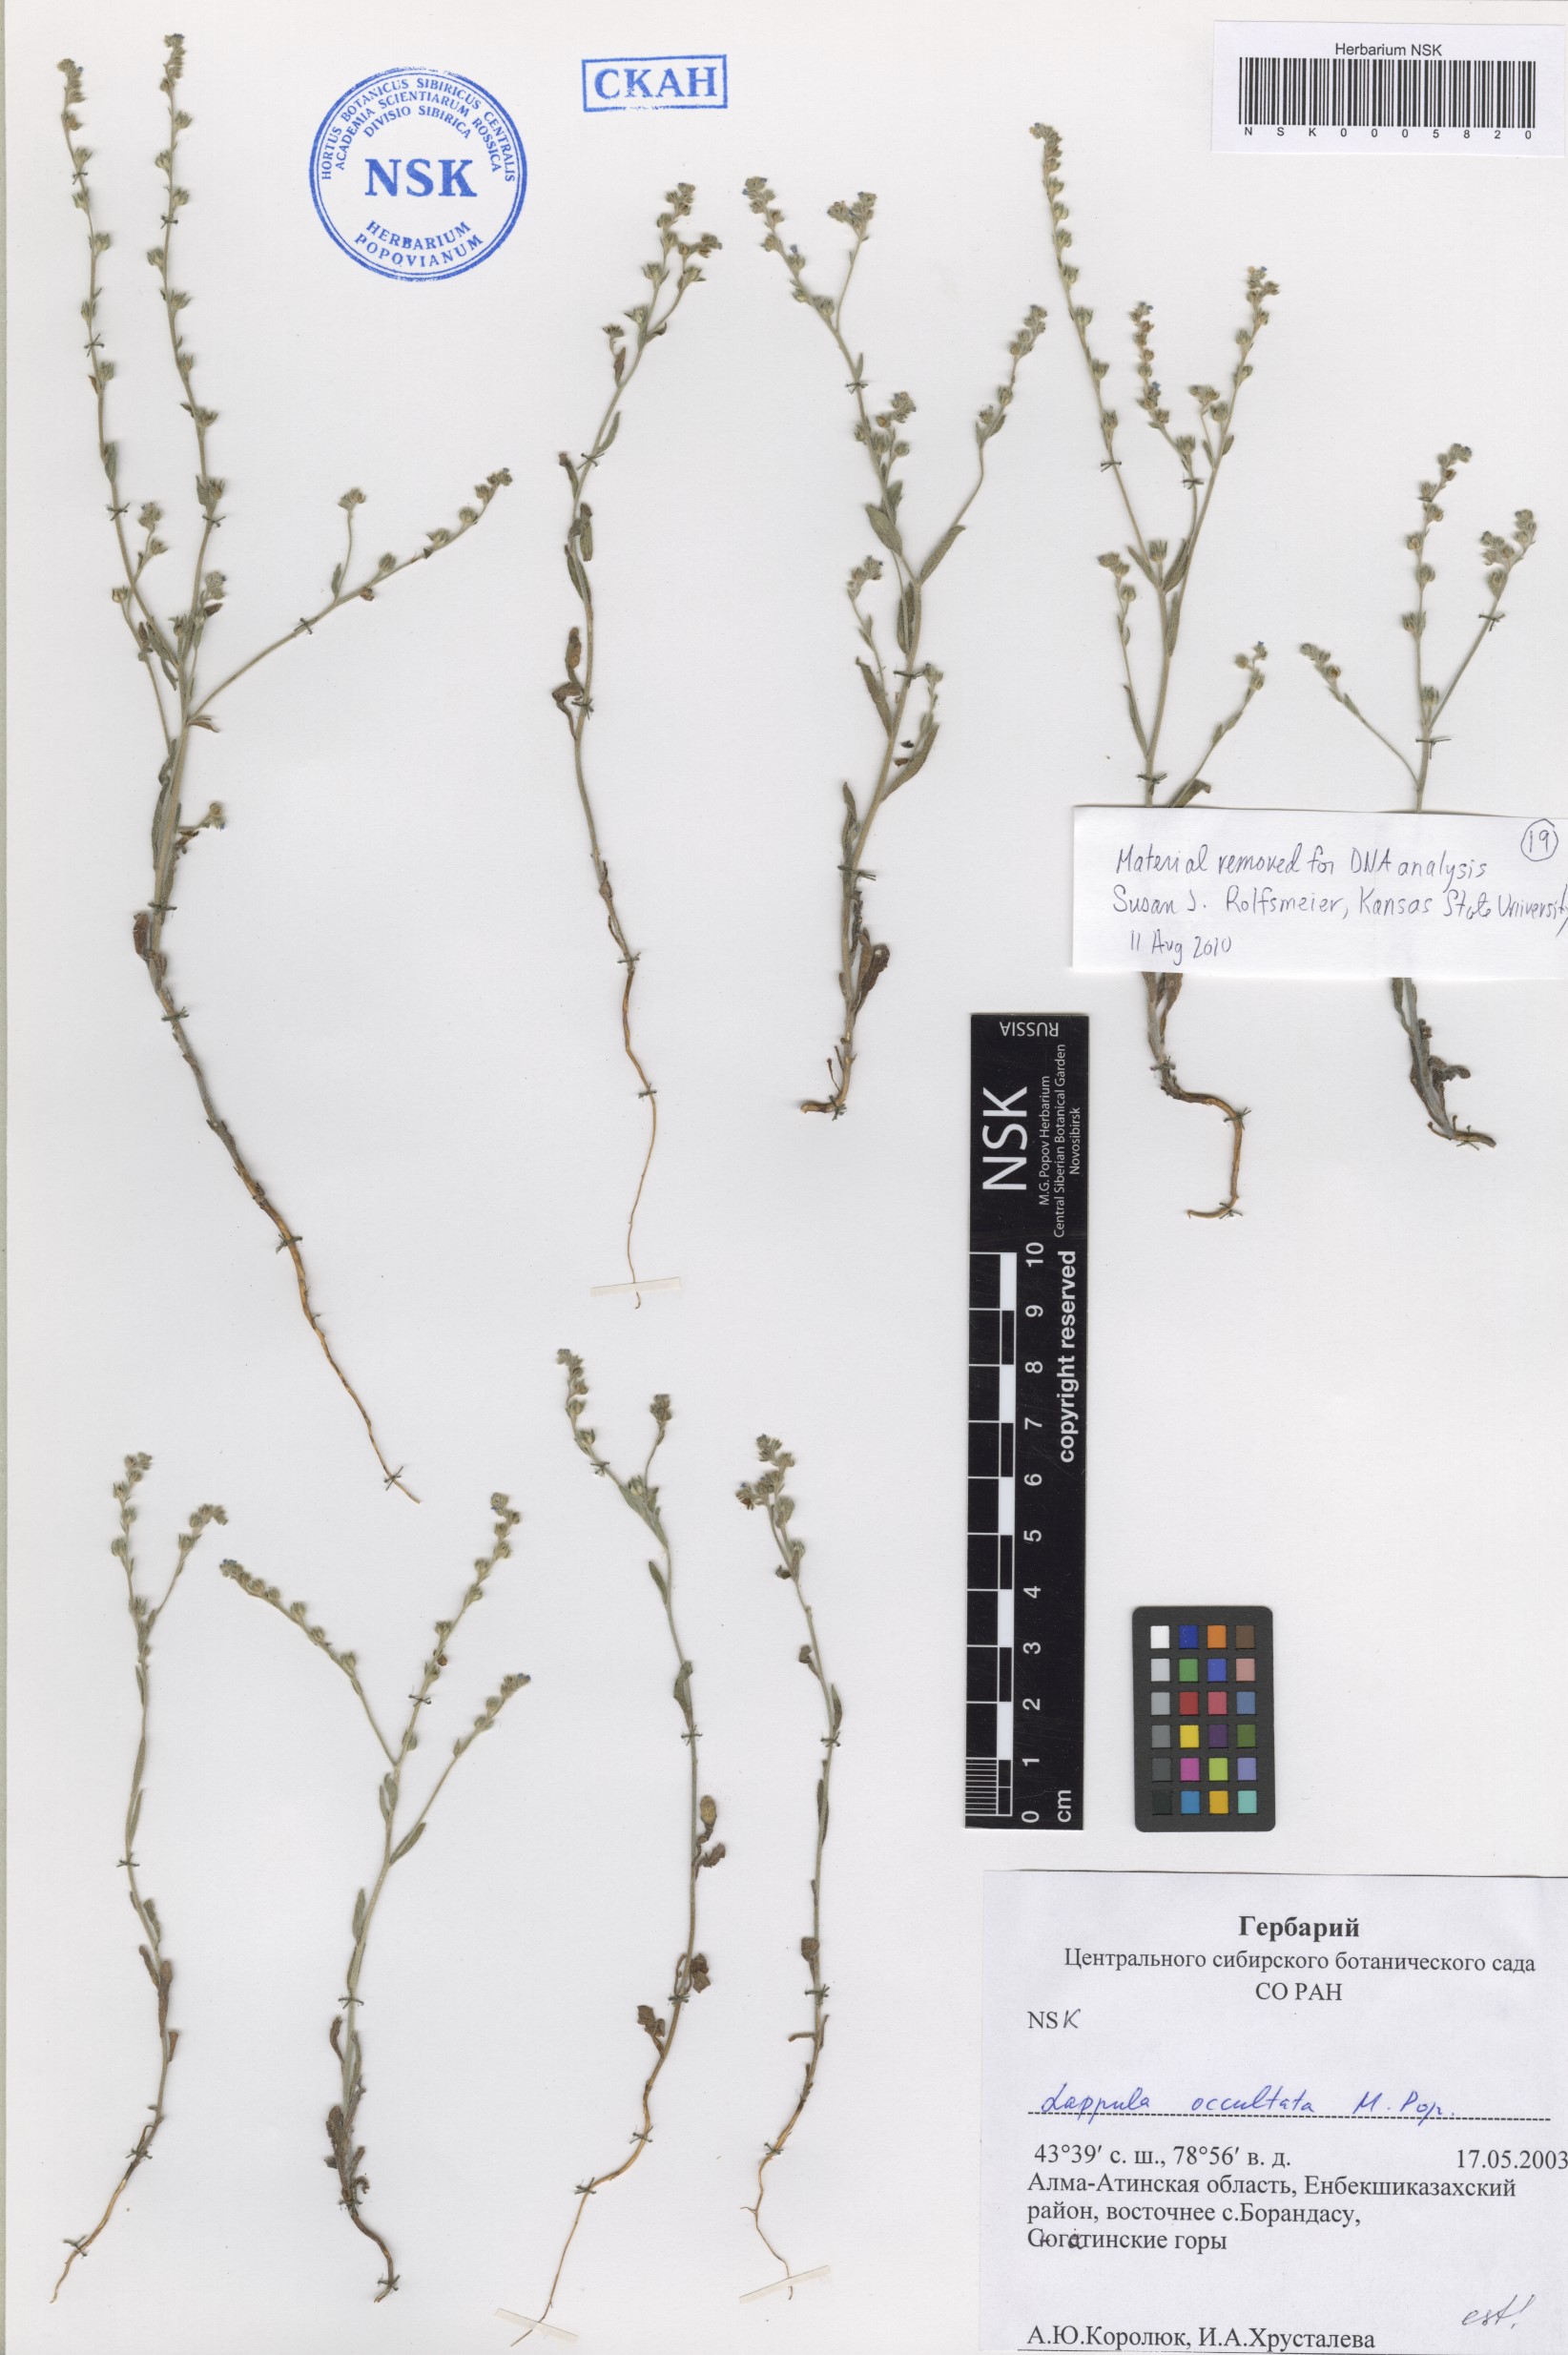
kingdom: Plantae
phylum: Tracheophyta
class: Magnoliopsida
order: Boraginales
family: Boraginaceae
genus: Lappula
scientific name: Lappula occultata
